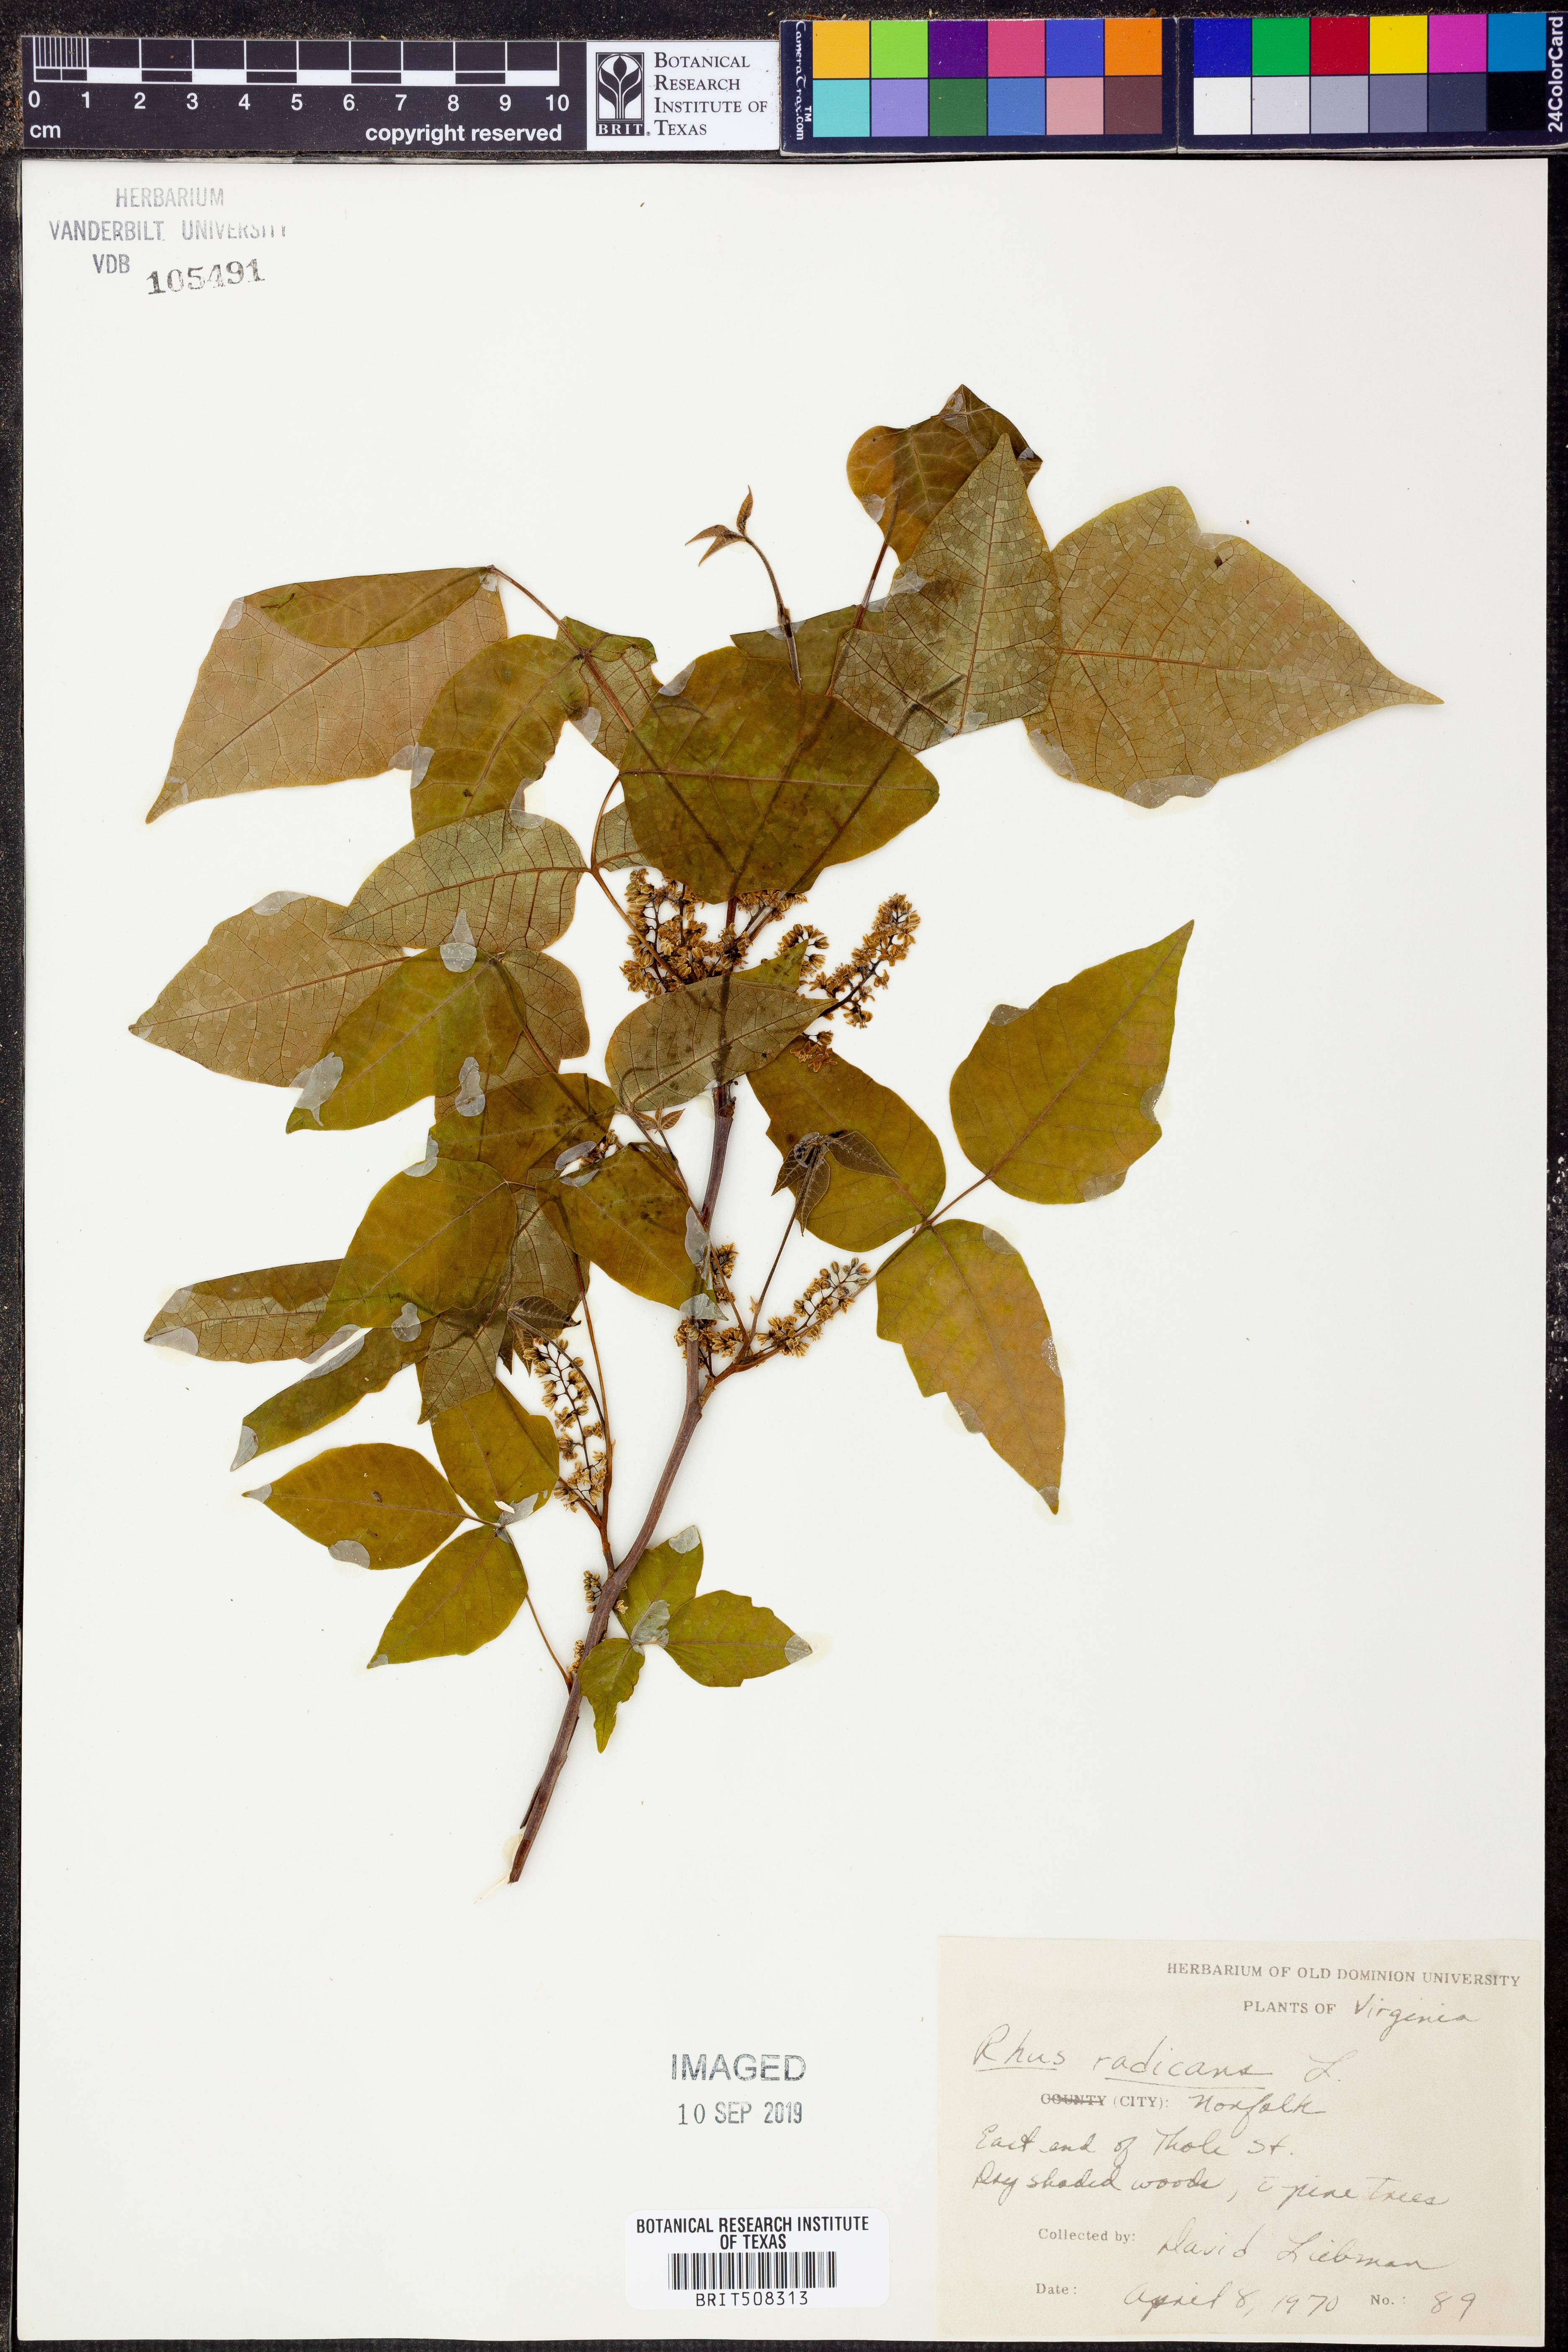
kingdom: Plantae
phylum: Tracheophyta
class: Magnoliopsida
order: Sapindales
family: Anacardiaceae
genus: Toxicodendron
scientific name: Toxicodendron radicans
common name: Poison ivy
